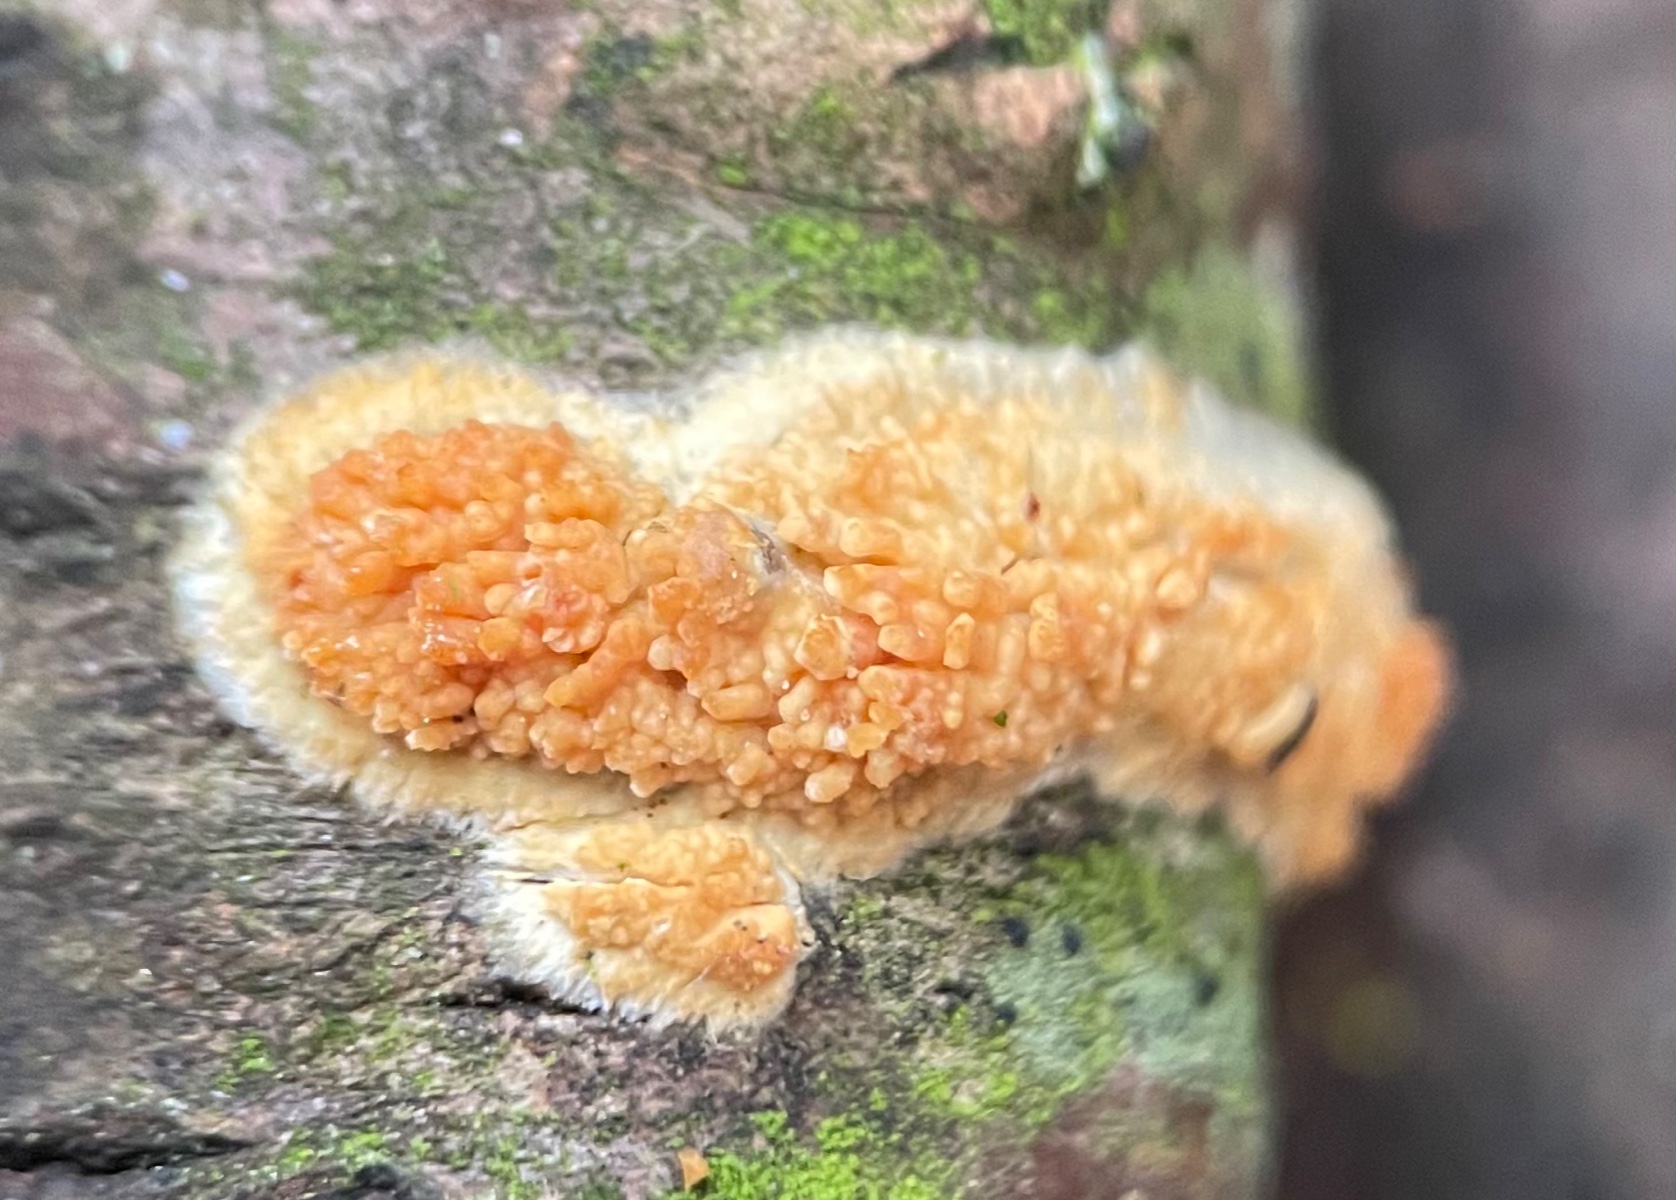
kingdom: Fungi
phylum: Basidiomycota
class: Agaricomycetes
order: Hymenochaetales
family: Schizoporaceae
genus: Xylodon
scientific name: Xylodon radula
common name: grovtandet kalkskind
